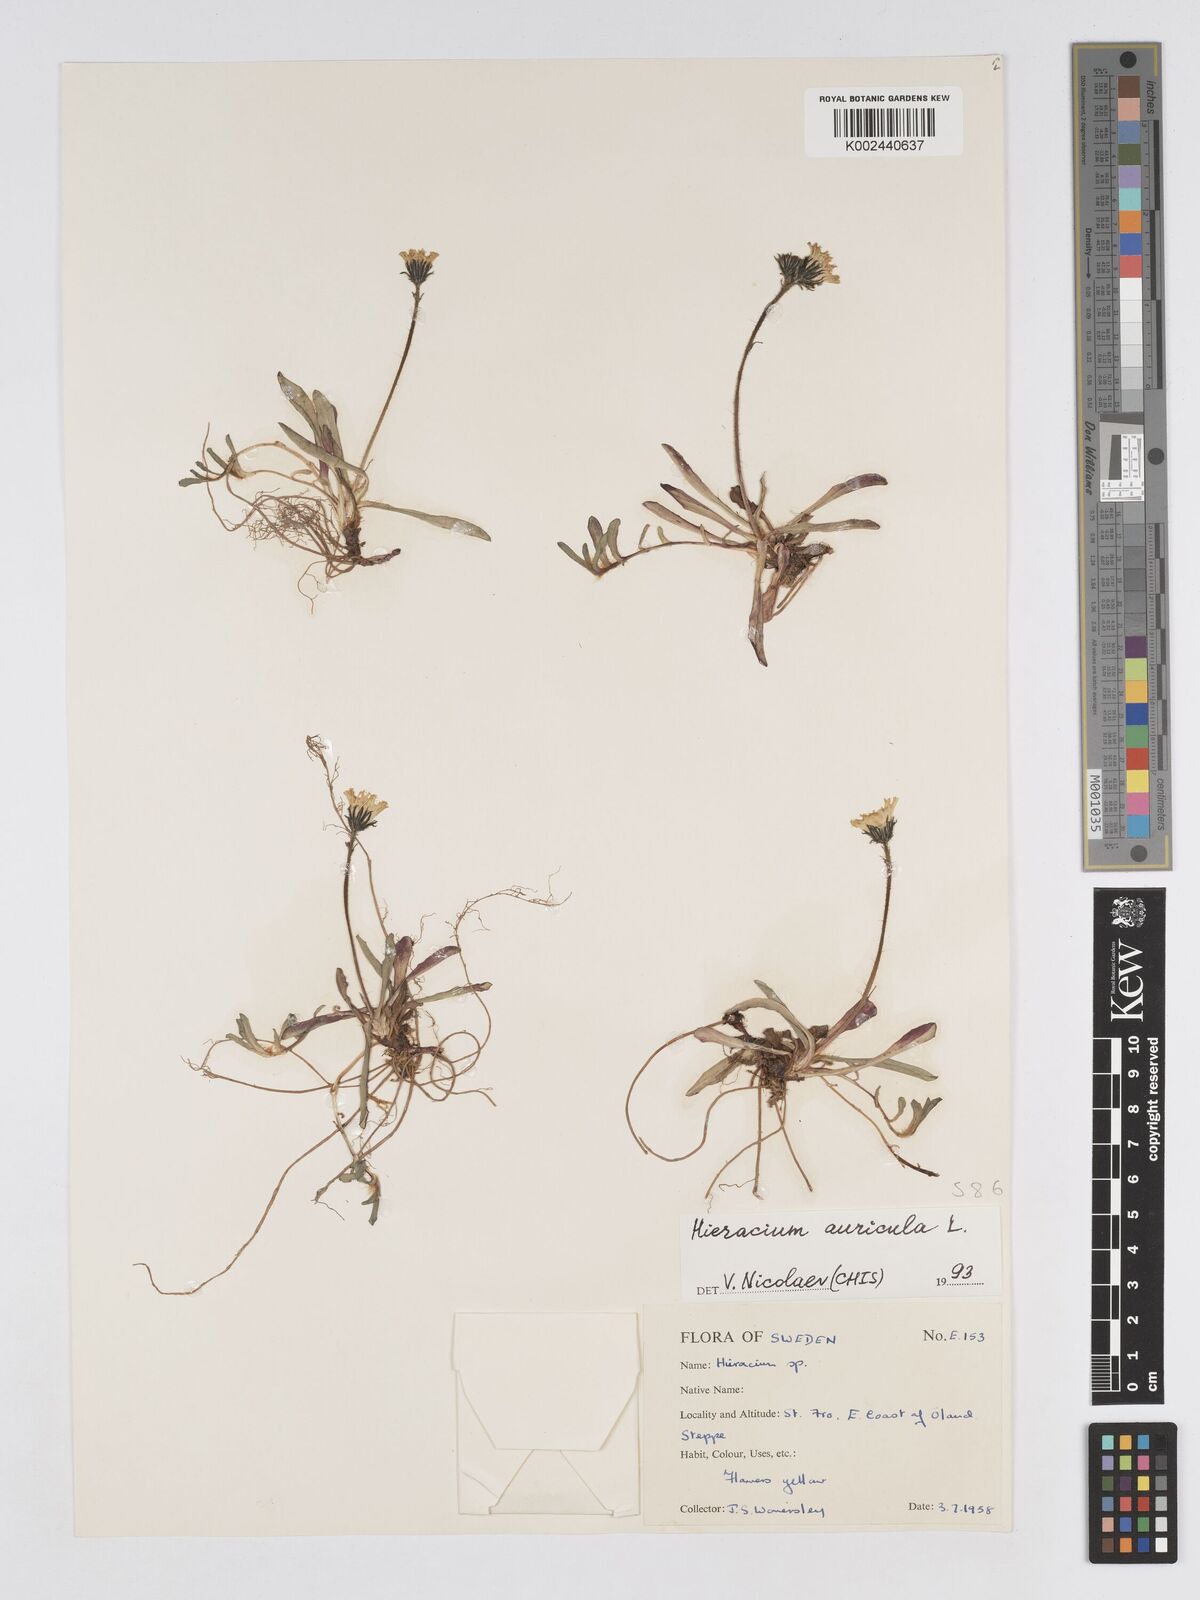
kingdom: Plantae
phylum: Tracheophyta
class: Magnoliopsida
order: Asterales
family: Asteraceae
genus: Pilosella
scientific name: Pilosella floribunda
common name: Glaucous hawkweed
